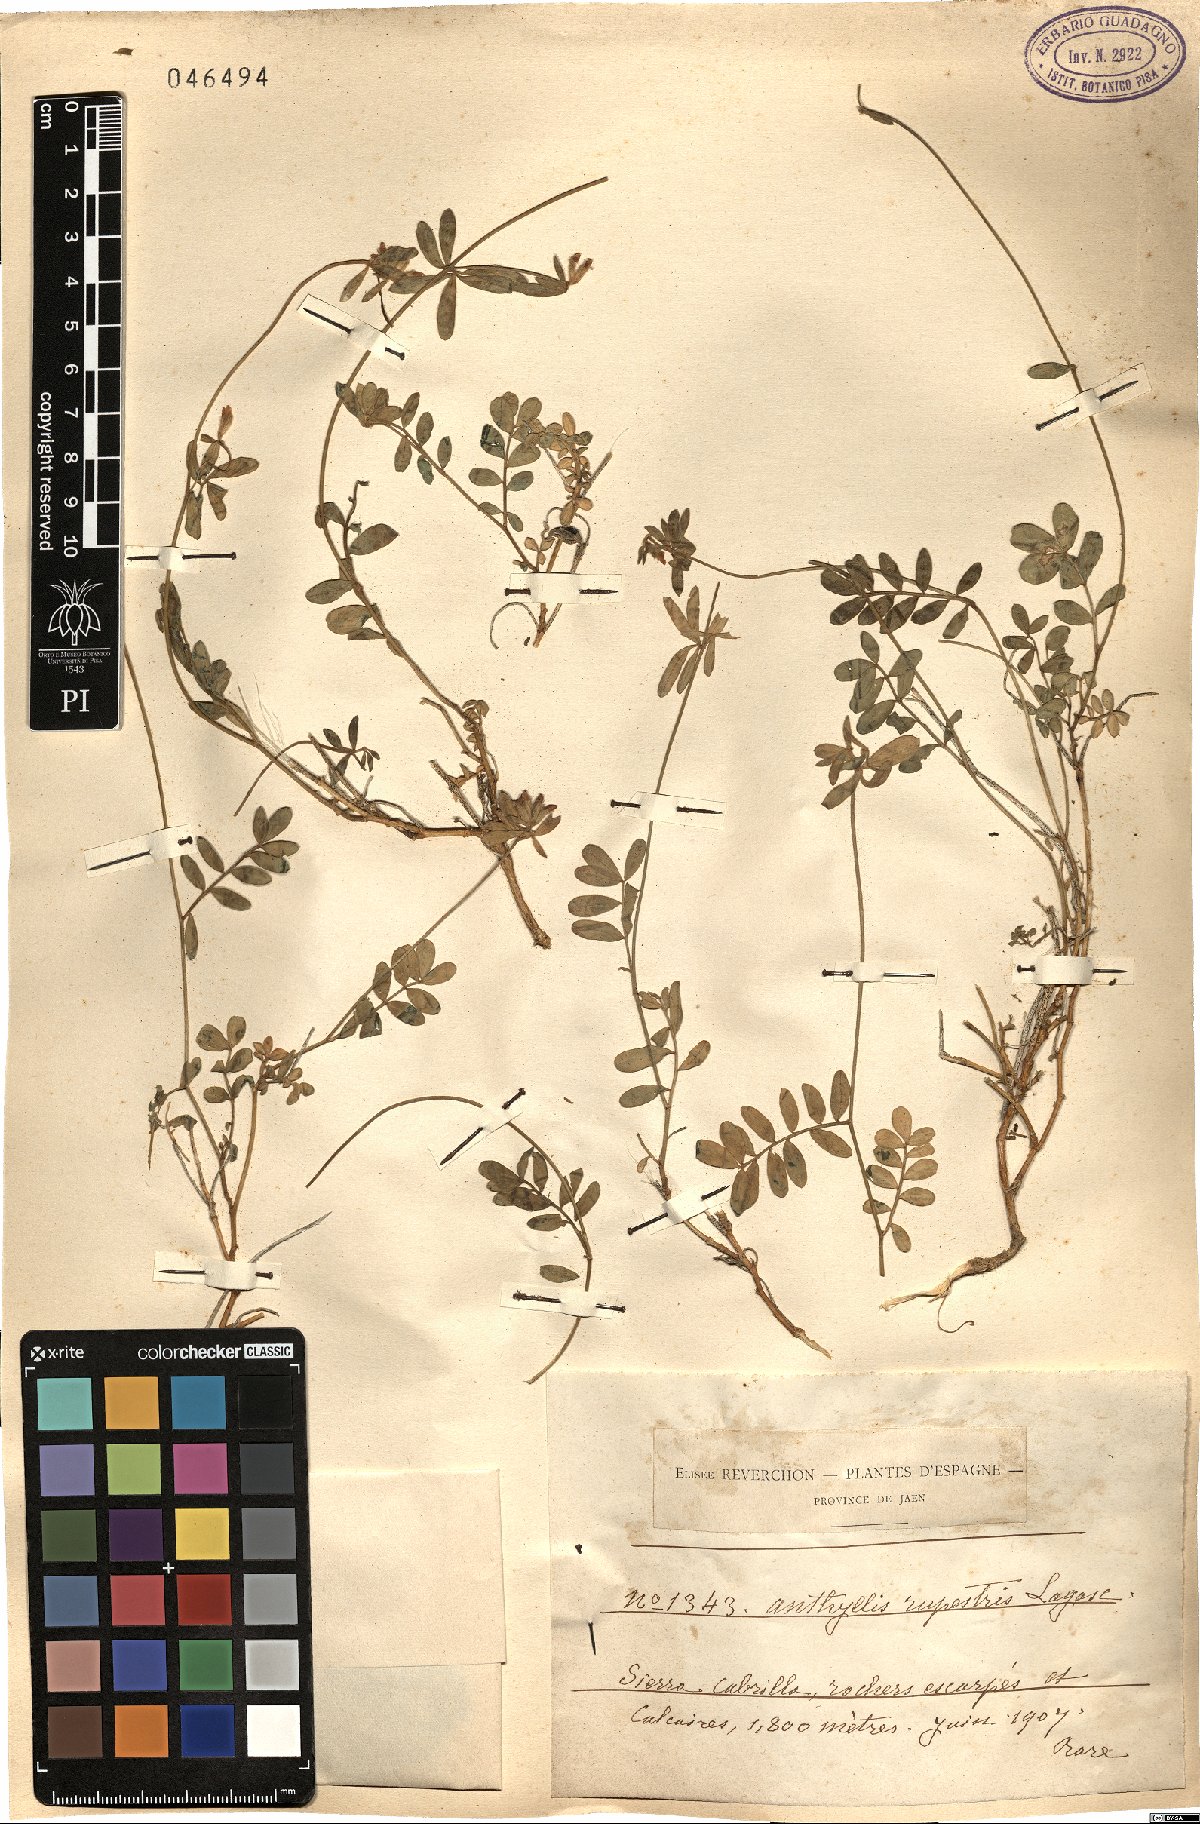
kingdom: Plantae
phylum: Tracheophyta
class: Magnoliopsida
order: Fabales
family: Fabaceae
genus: Anthyllis
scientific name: Anthyllis rupestris
